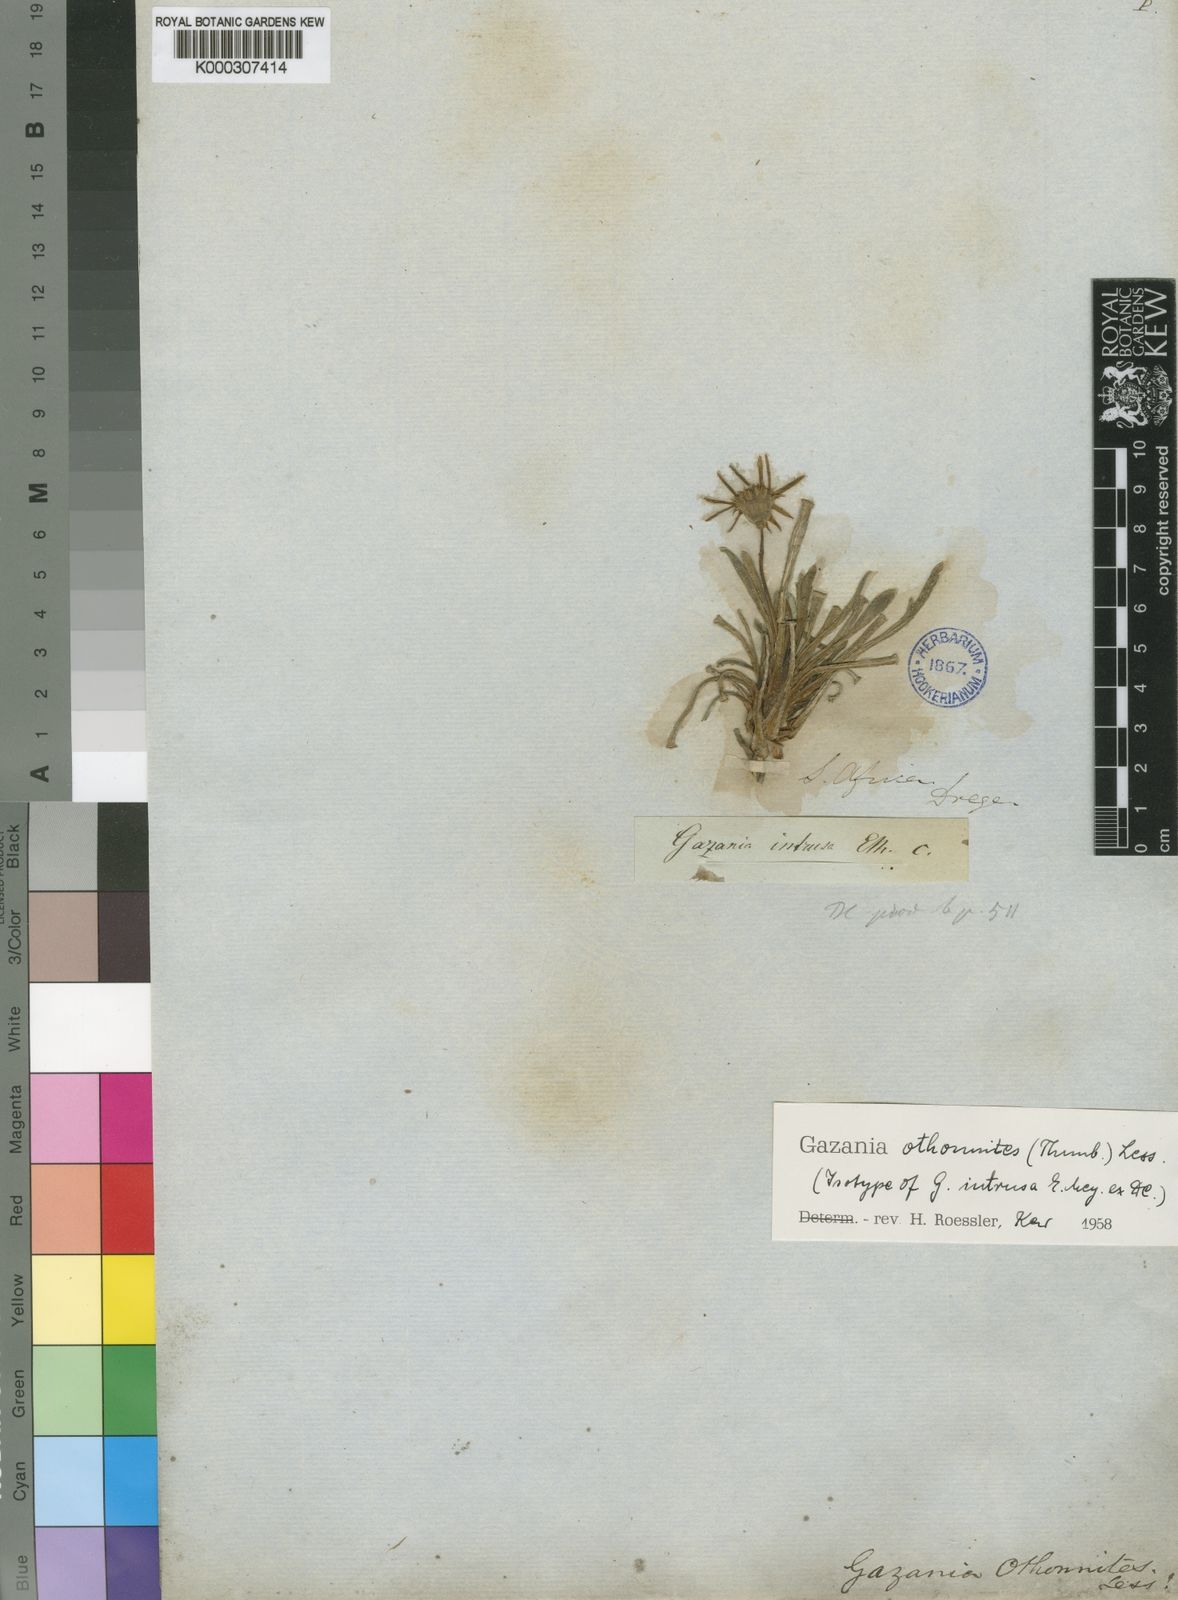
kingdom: Plantae
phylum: Tracheophyta
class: Magnoliopsida
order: Asterales
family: Asteraceae
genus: Gazania
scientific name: Gazania othonnites
